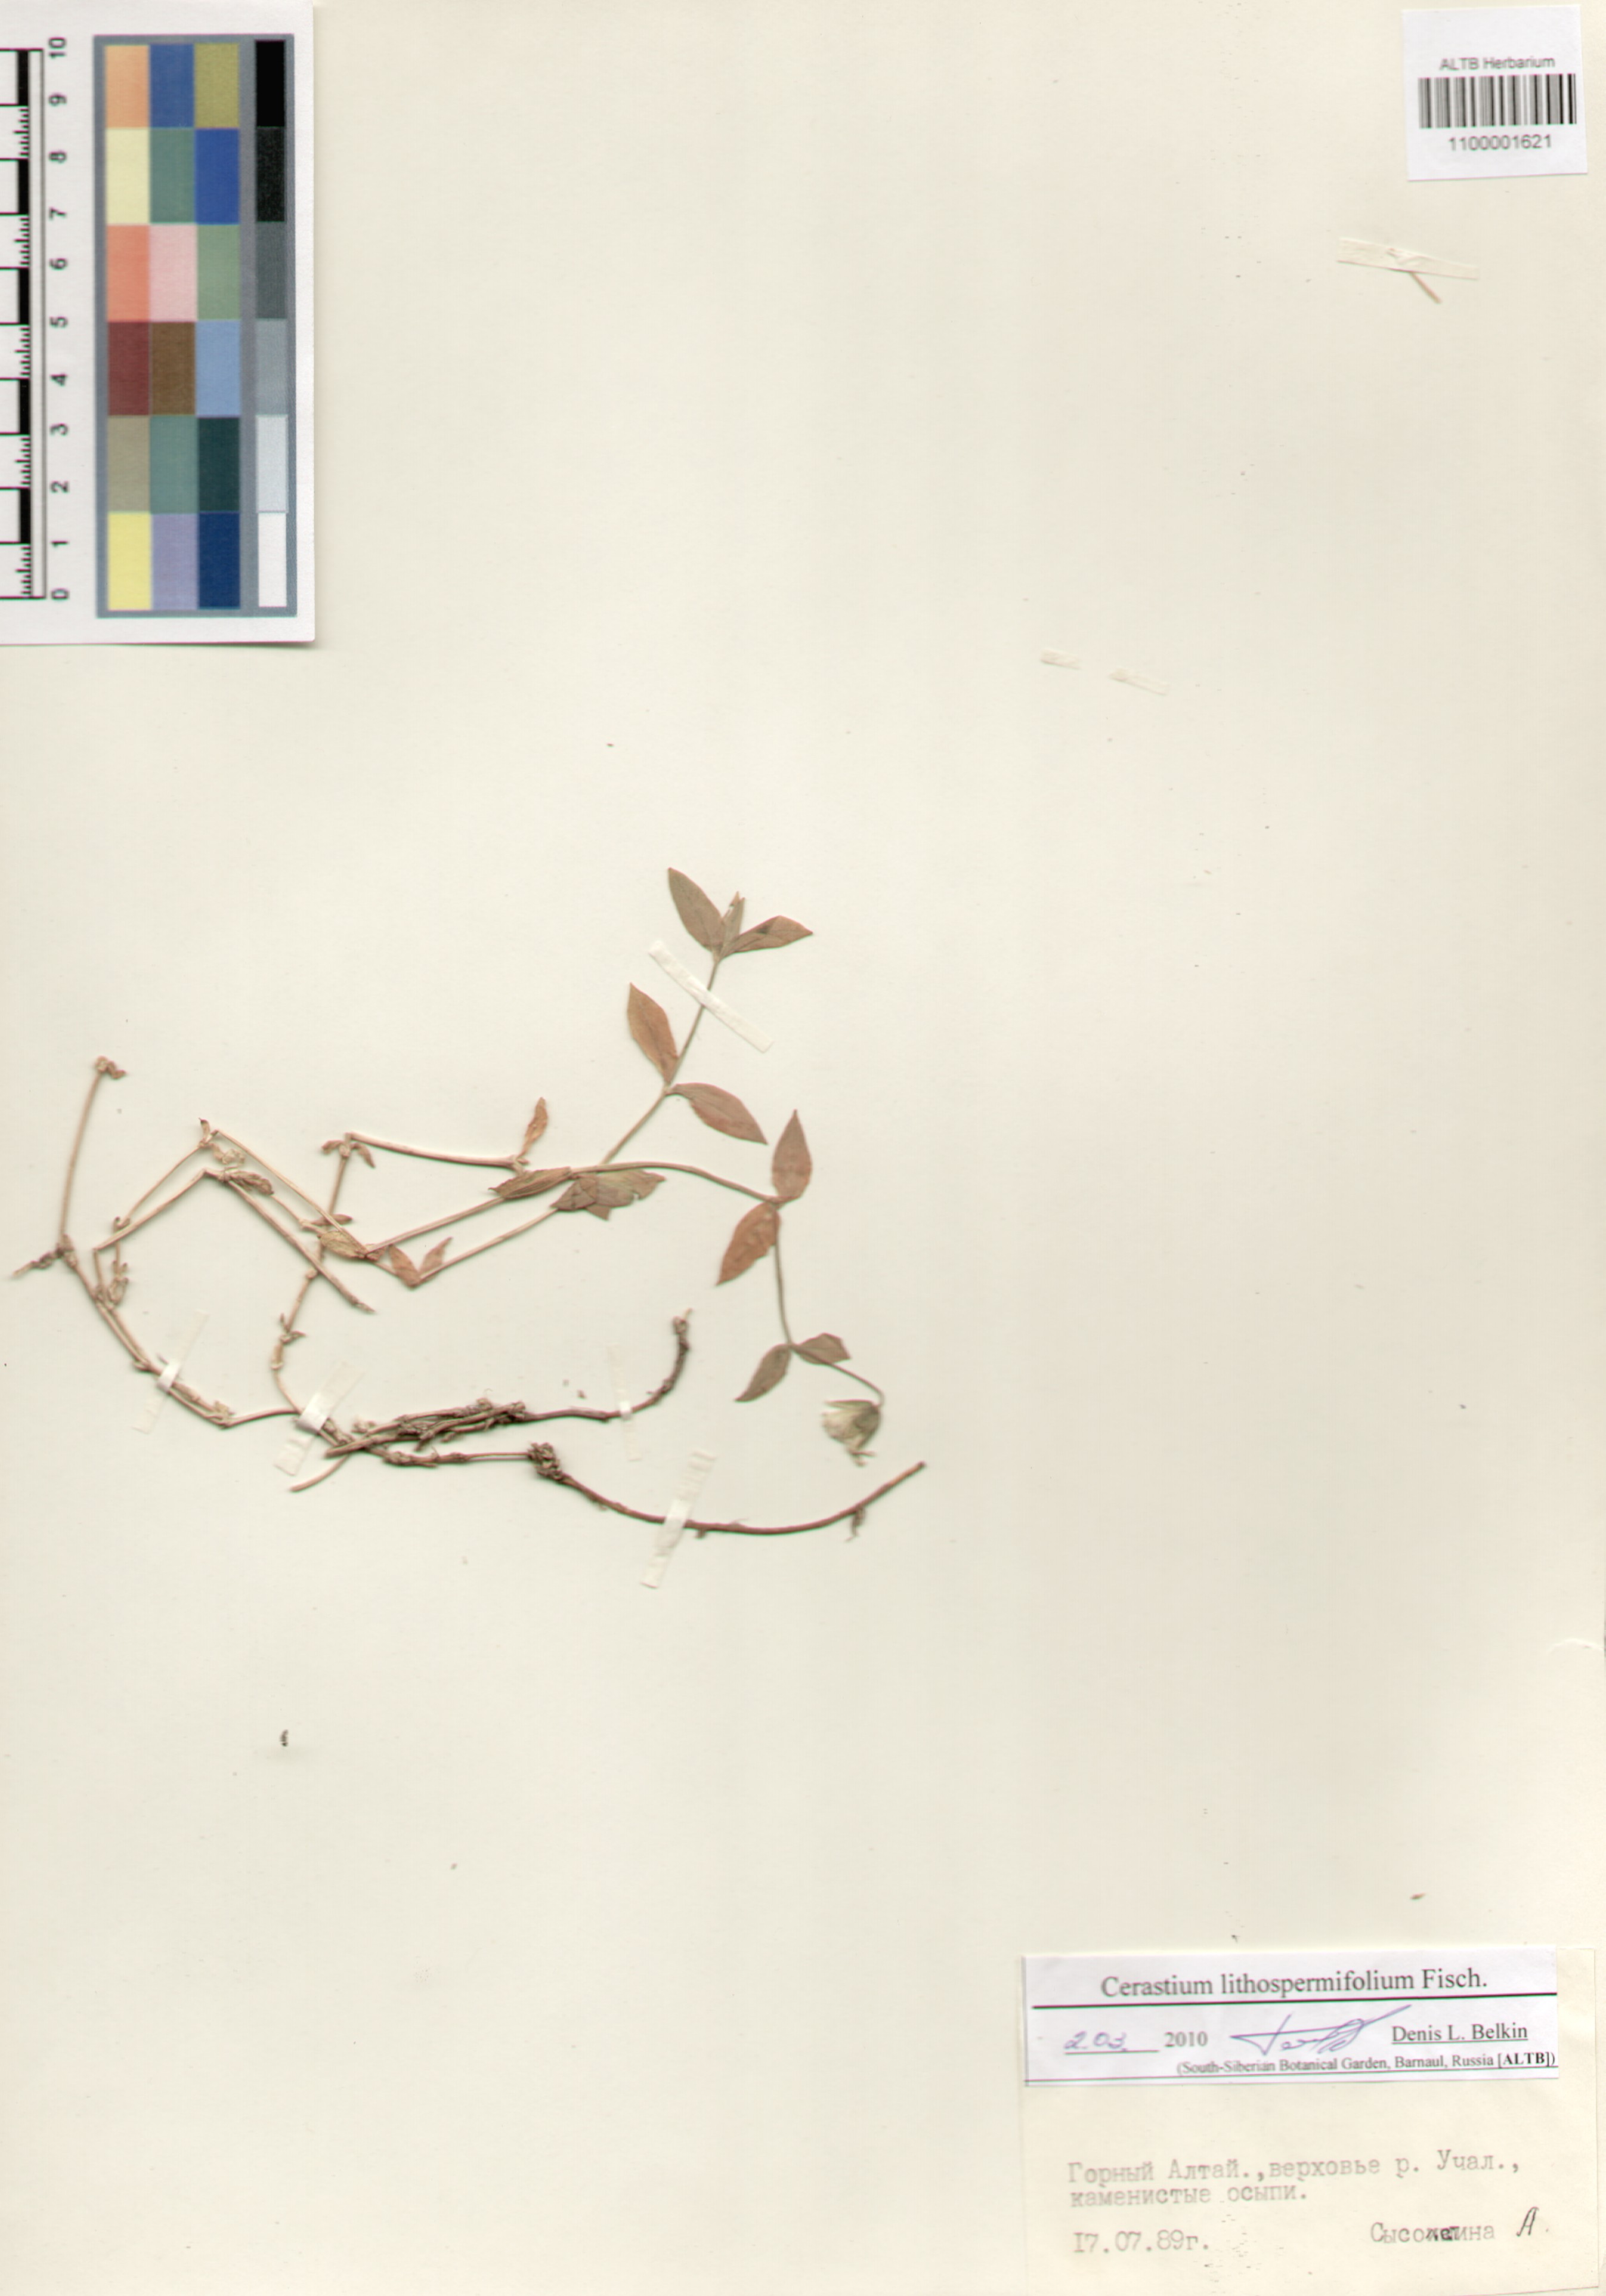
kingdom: Plantae
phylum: Tracheophyta
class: Magnoliopsida
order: Caryophyllales
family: Caryophyllaceae
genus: Cerastium
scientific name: Cerastium lithospermifolium
